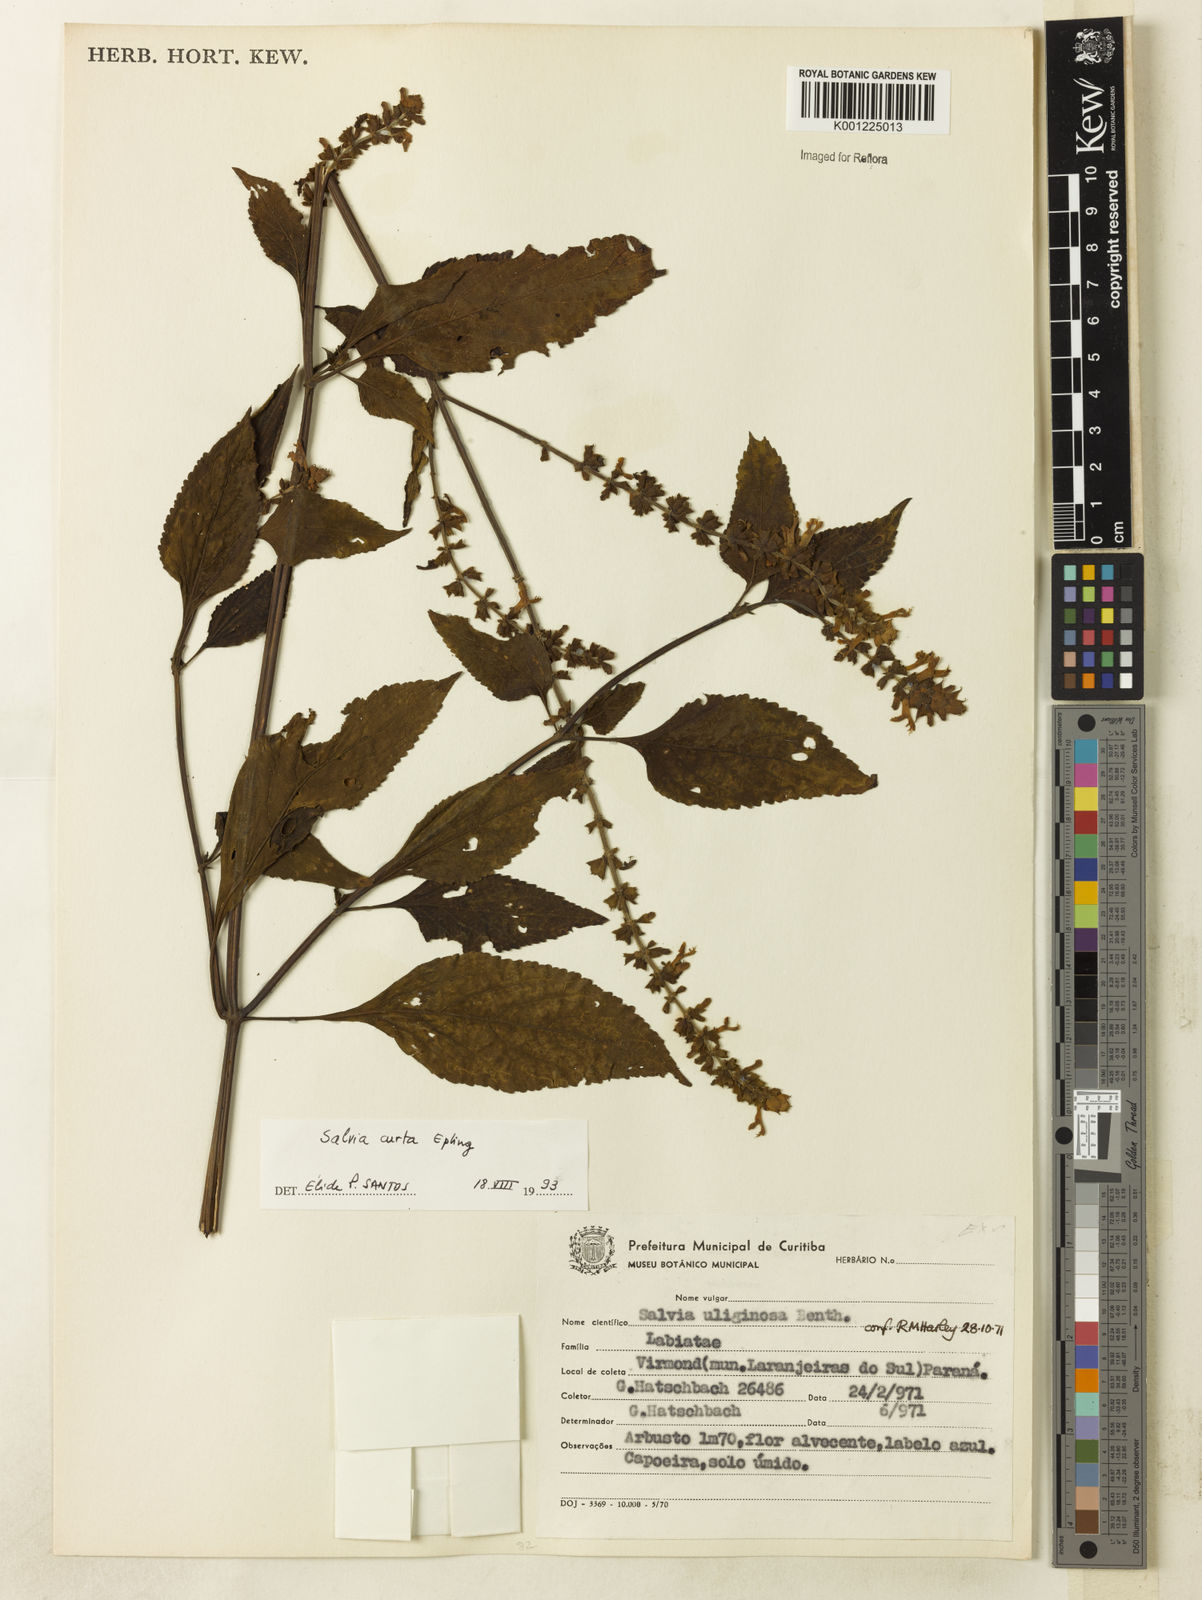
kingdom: Plantae
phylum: Tracheophyta
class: Magnoliopsida
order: Lamiales
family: Lamiaceae
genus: Salvia
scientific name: Salvia curta
